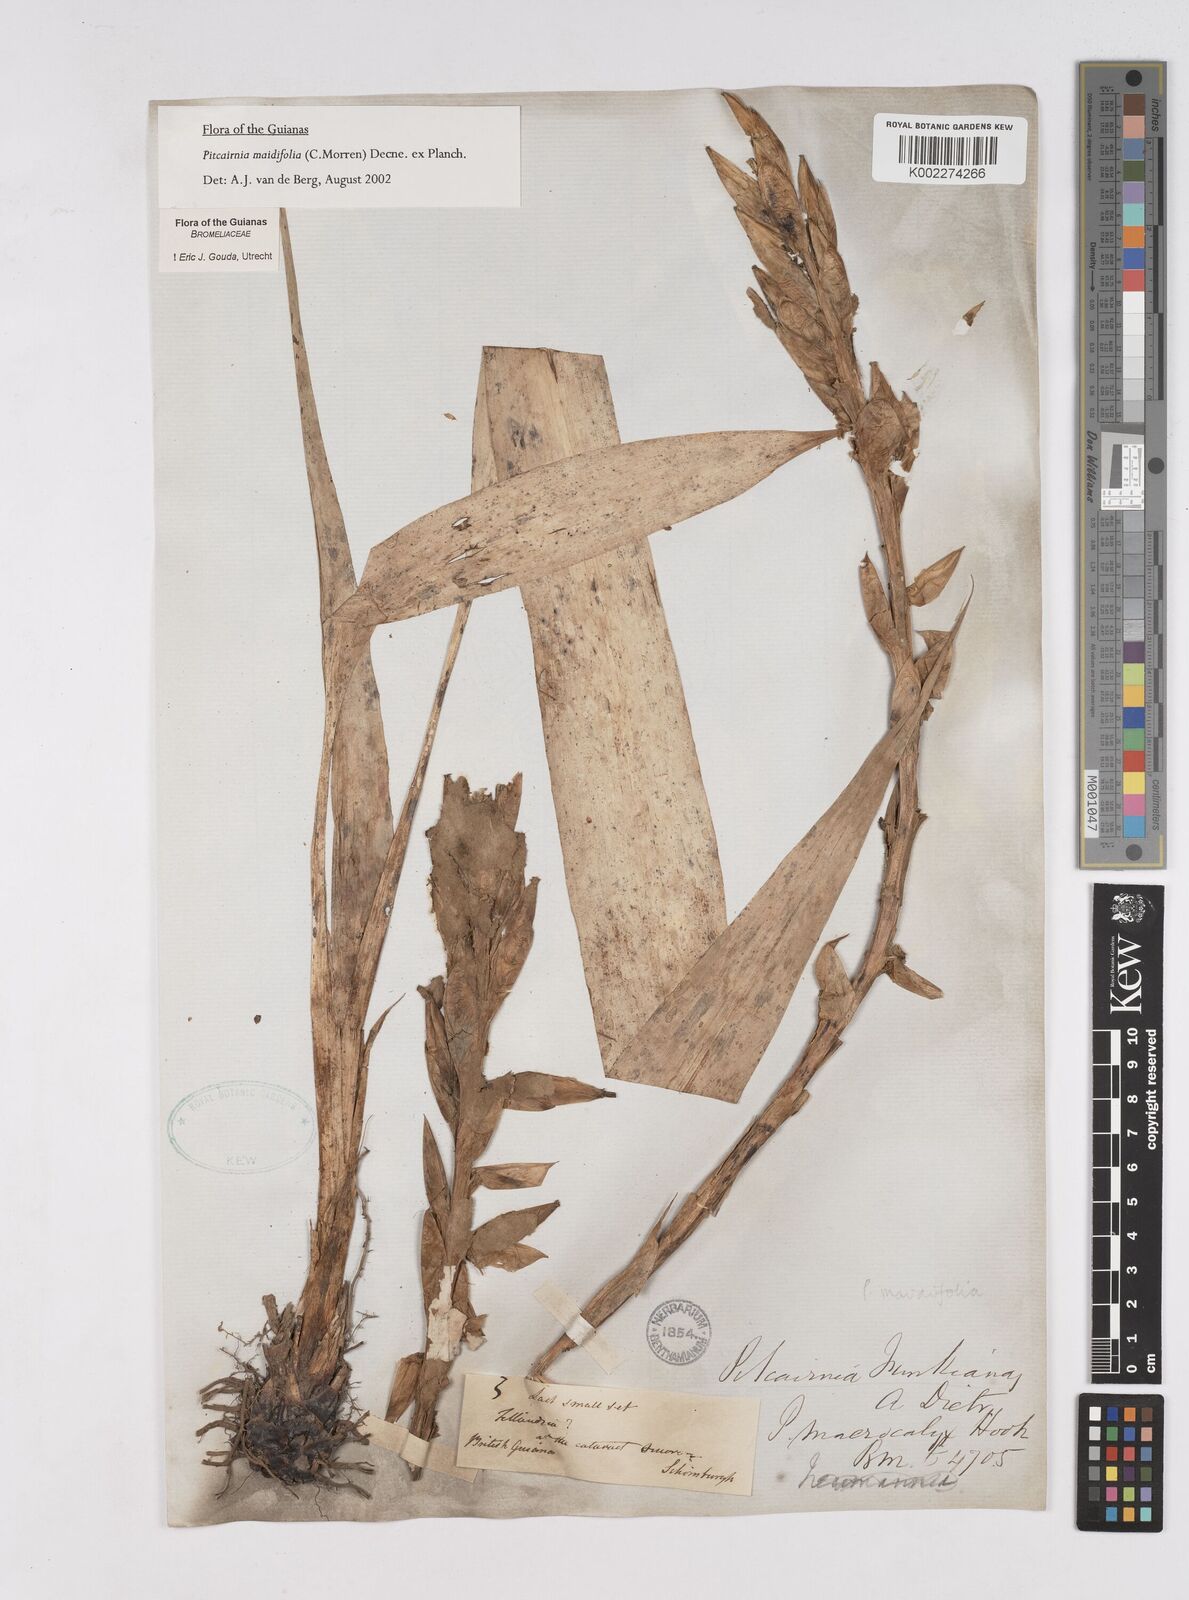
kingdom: Plantae
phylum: Tracheophyta
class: Liliopsida
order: Poales
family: Bromeliaceae
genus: Pitcairnia
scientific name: Pitcairnia maidifolia
